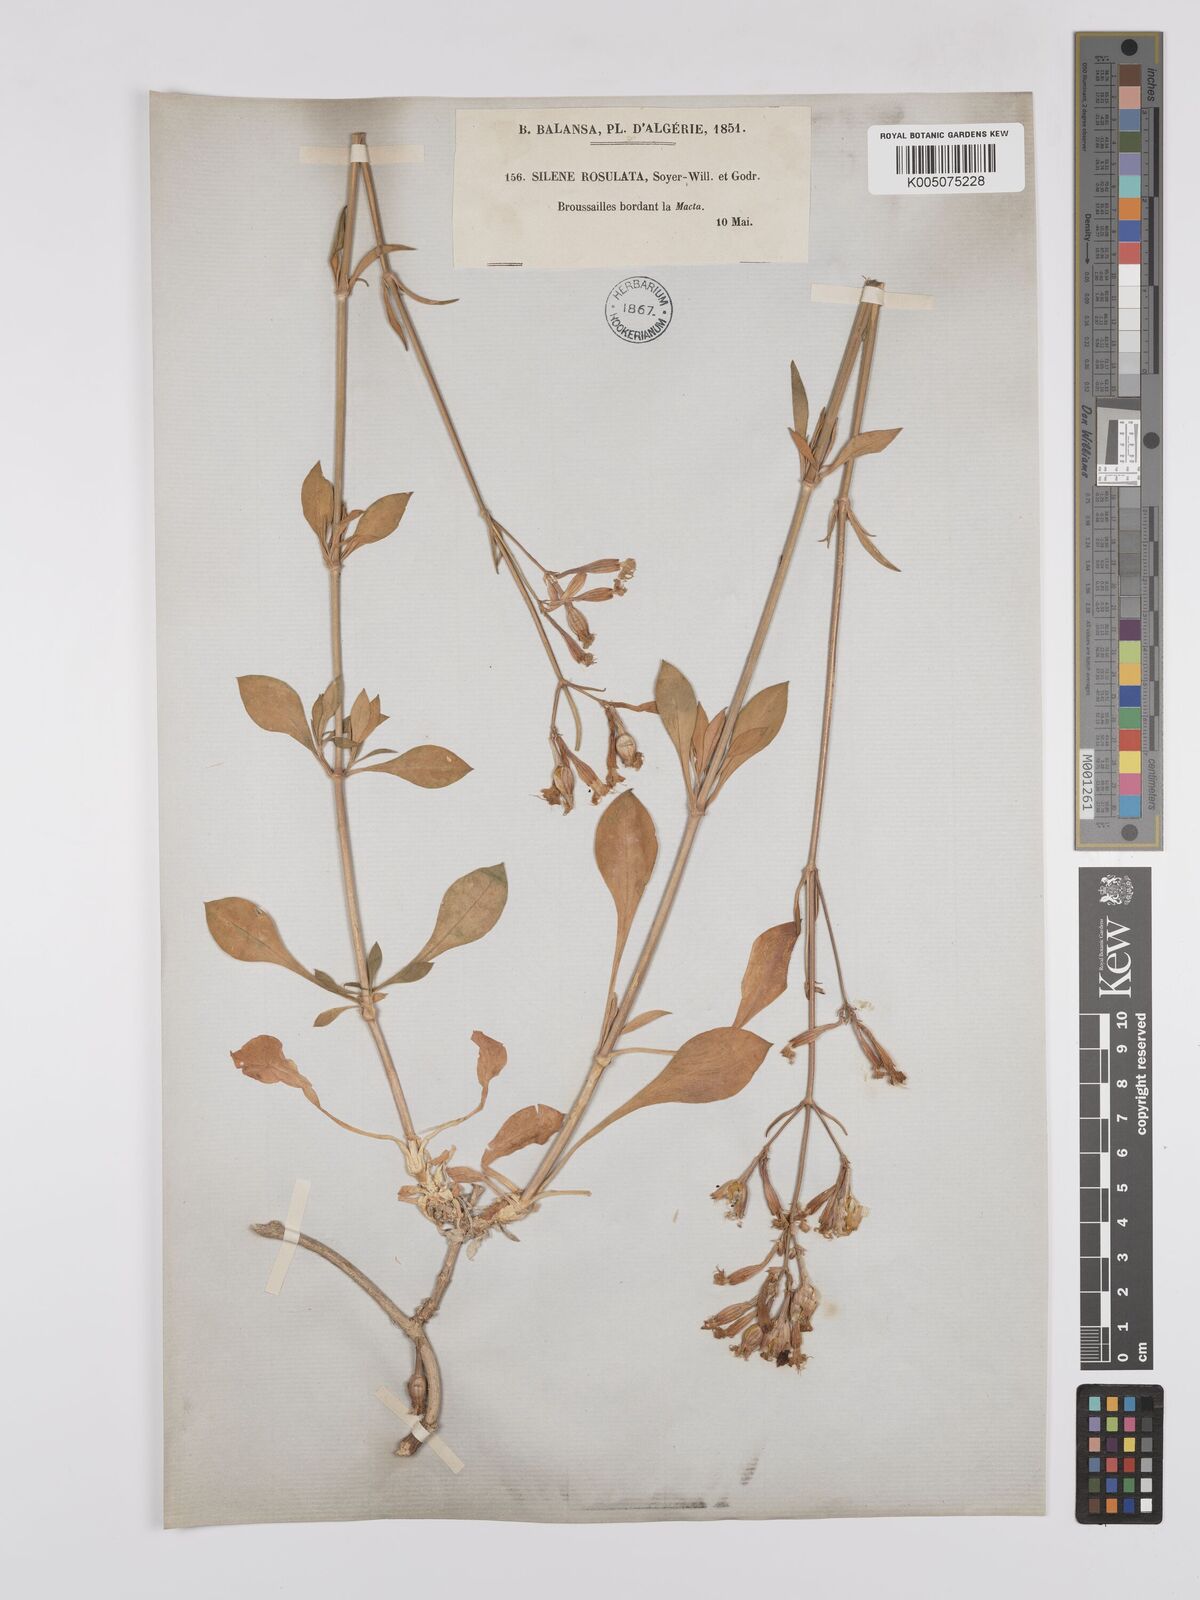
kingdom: Plantae
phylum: Tracheophyta
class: Magnoliopsida
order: Caryophyllales
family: Caryophyllaceae
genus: Silene
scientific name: Silene rosulata
